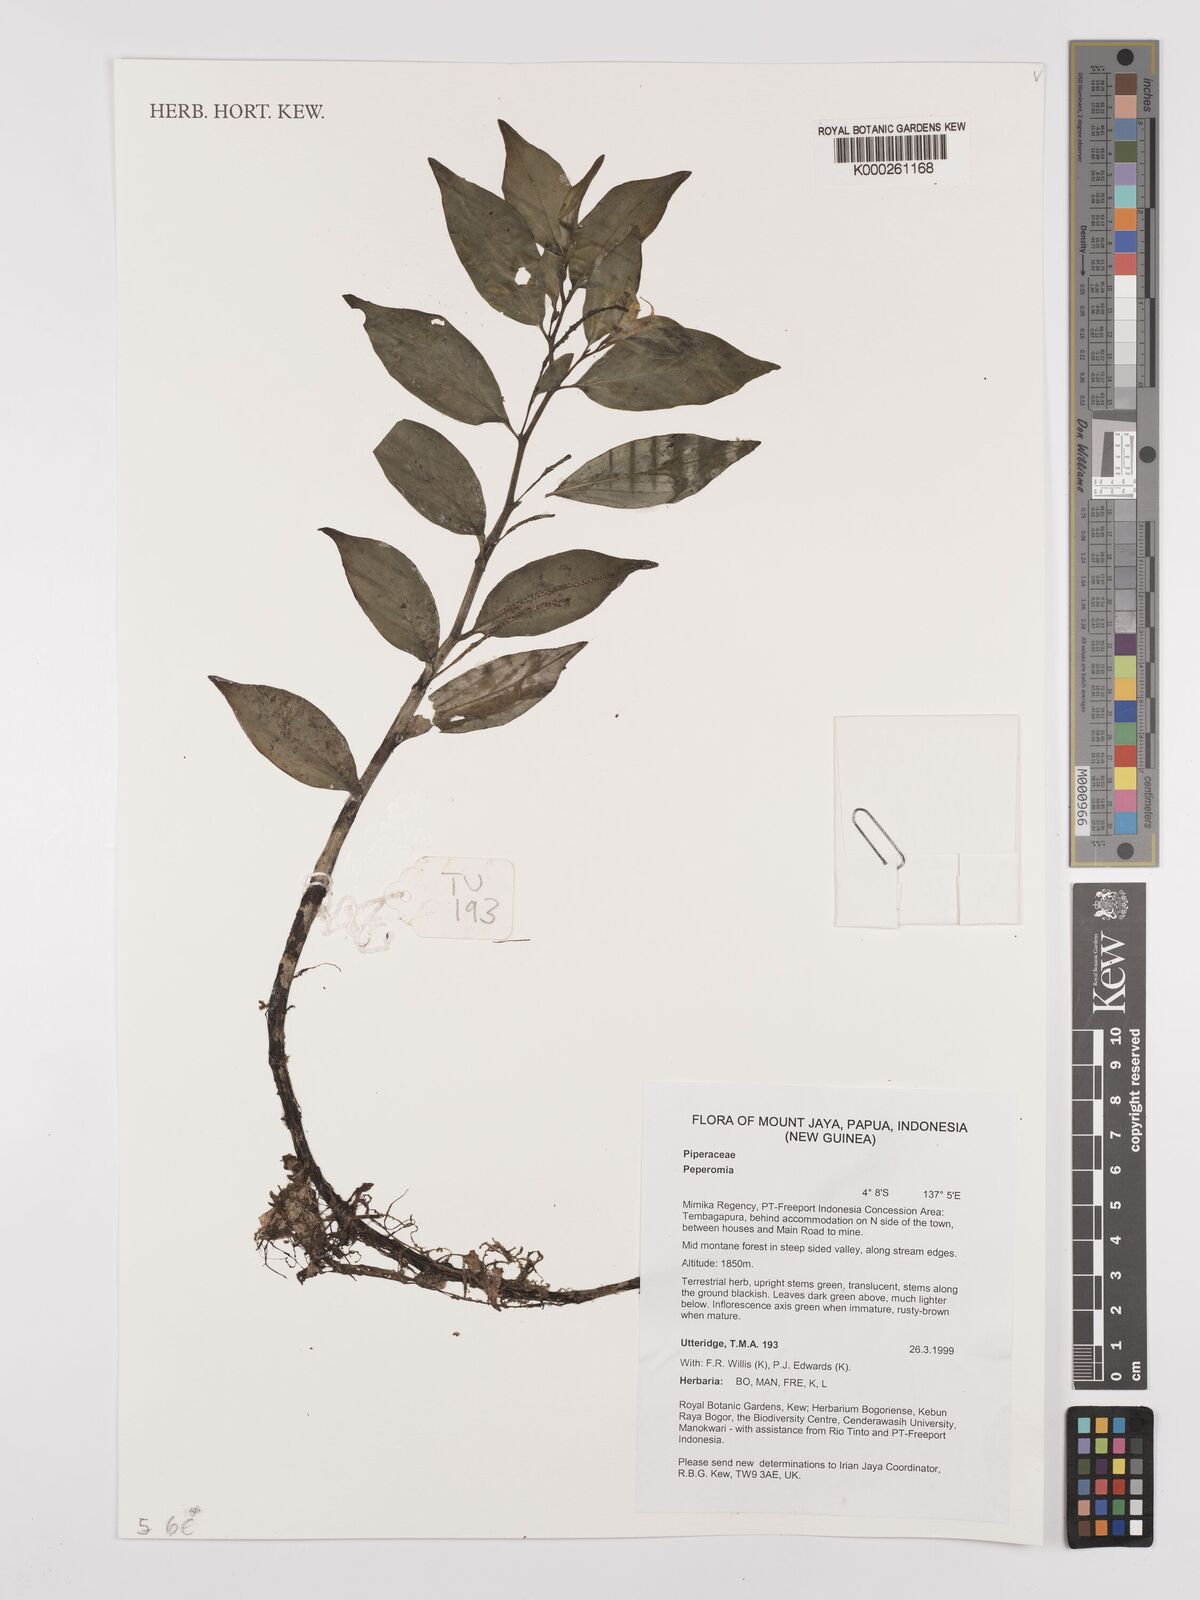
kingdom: Plantae
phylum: Tracheophyta
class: Magnoliopsida
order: Piperales
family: Piperaceae
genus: Peperomia
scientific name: Peperomia
